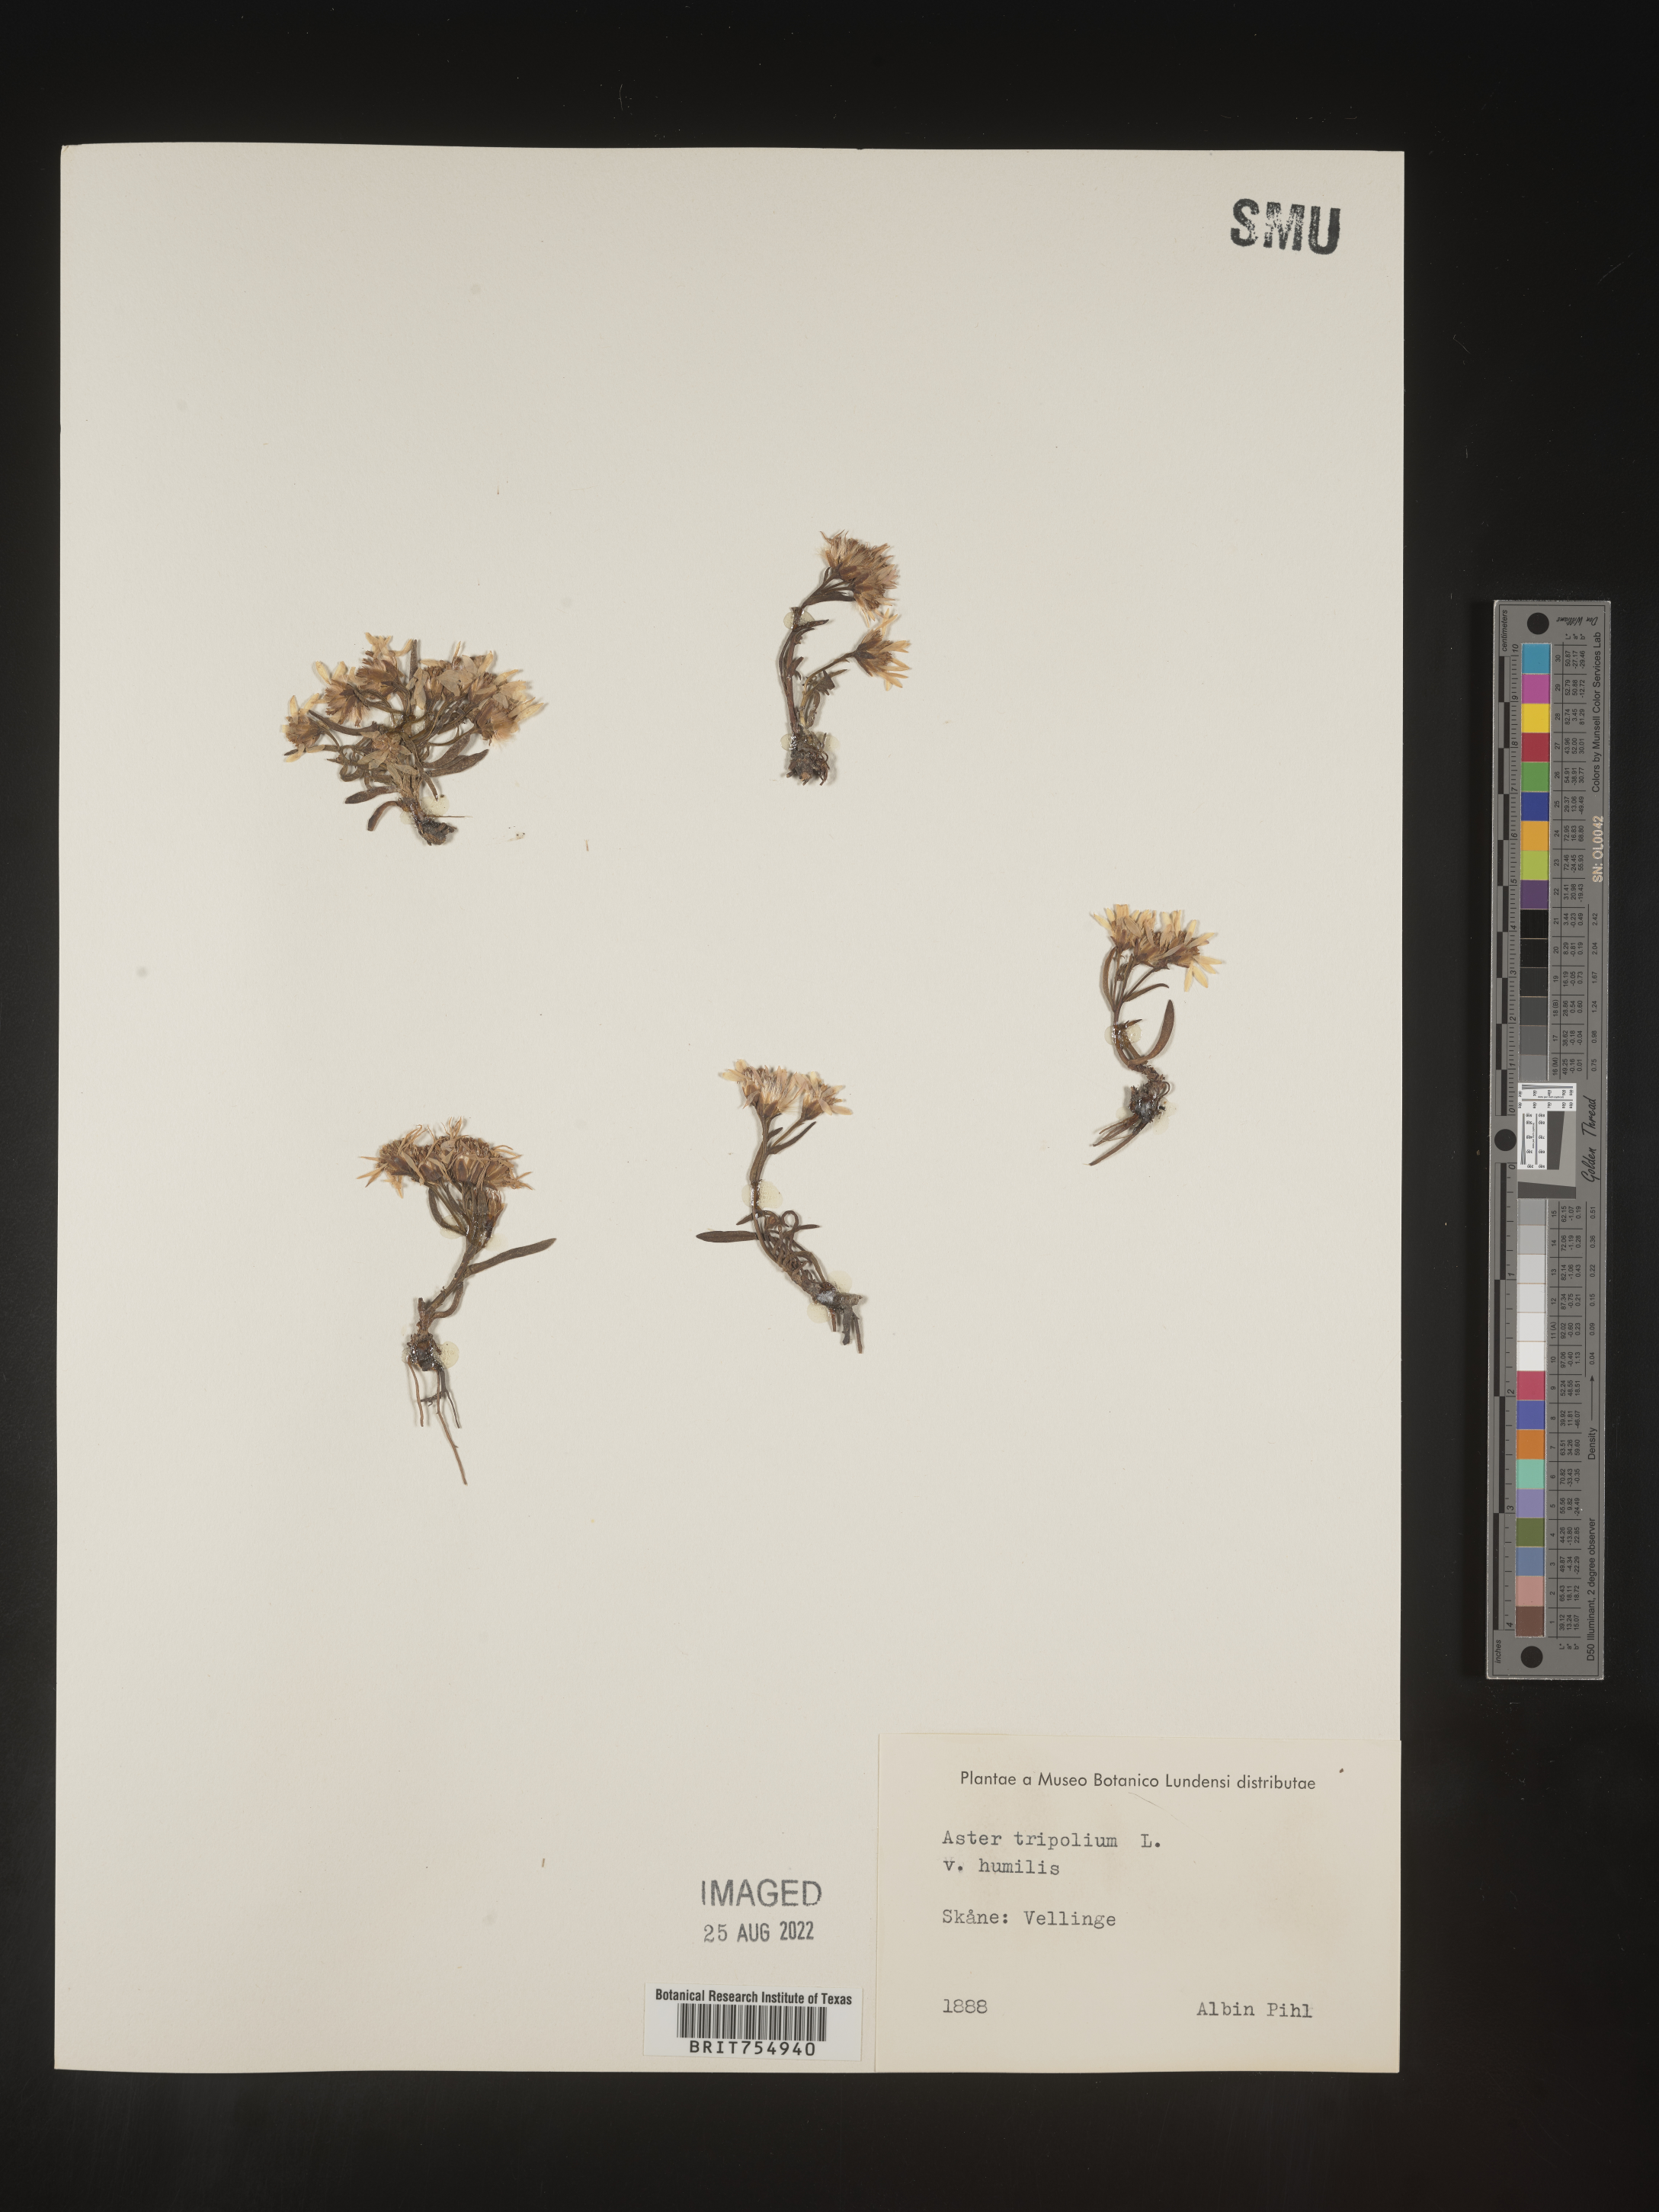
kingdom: Plantae
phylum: Tracheophyta
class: Magnoliopsida
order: Asterales
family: Asteraceae
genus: Symphyotrichum
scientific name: Symphyotrichum
